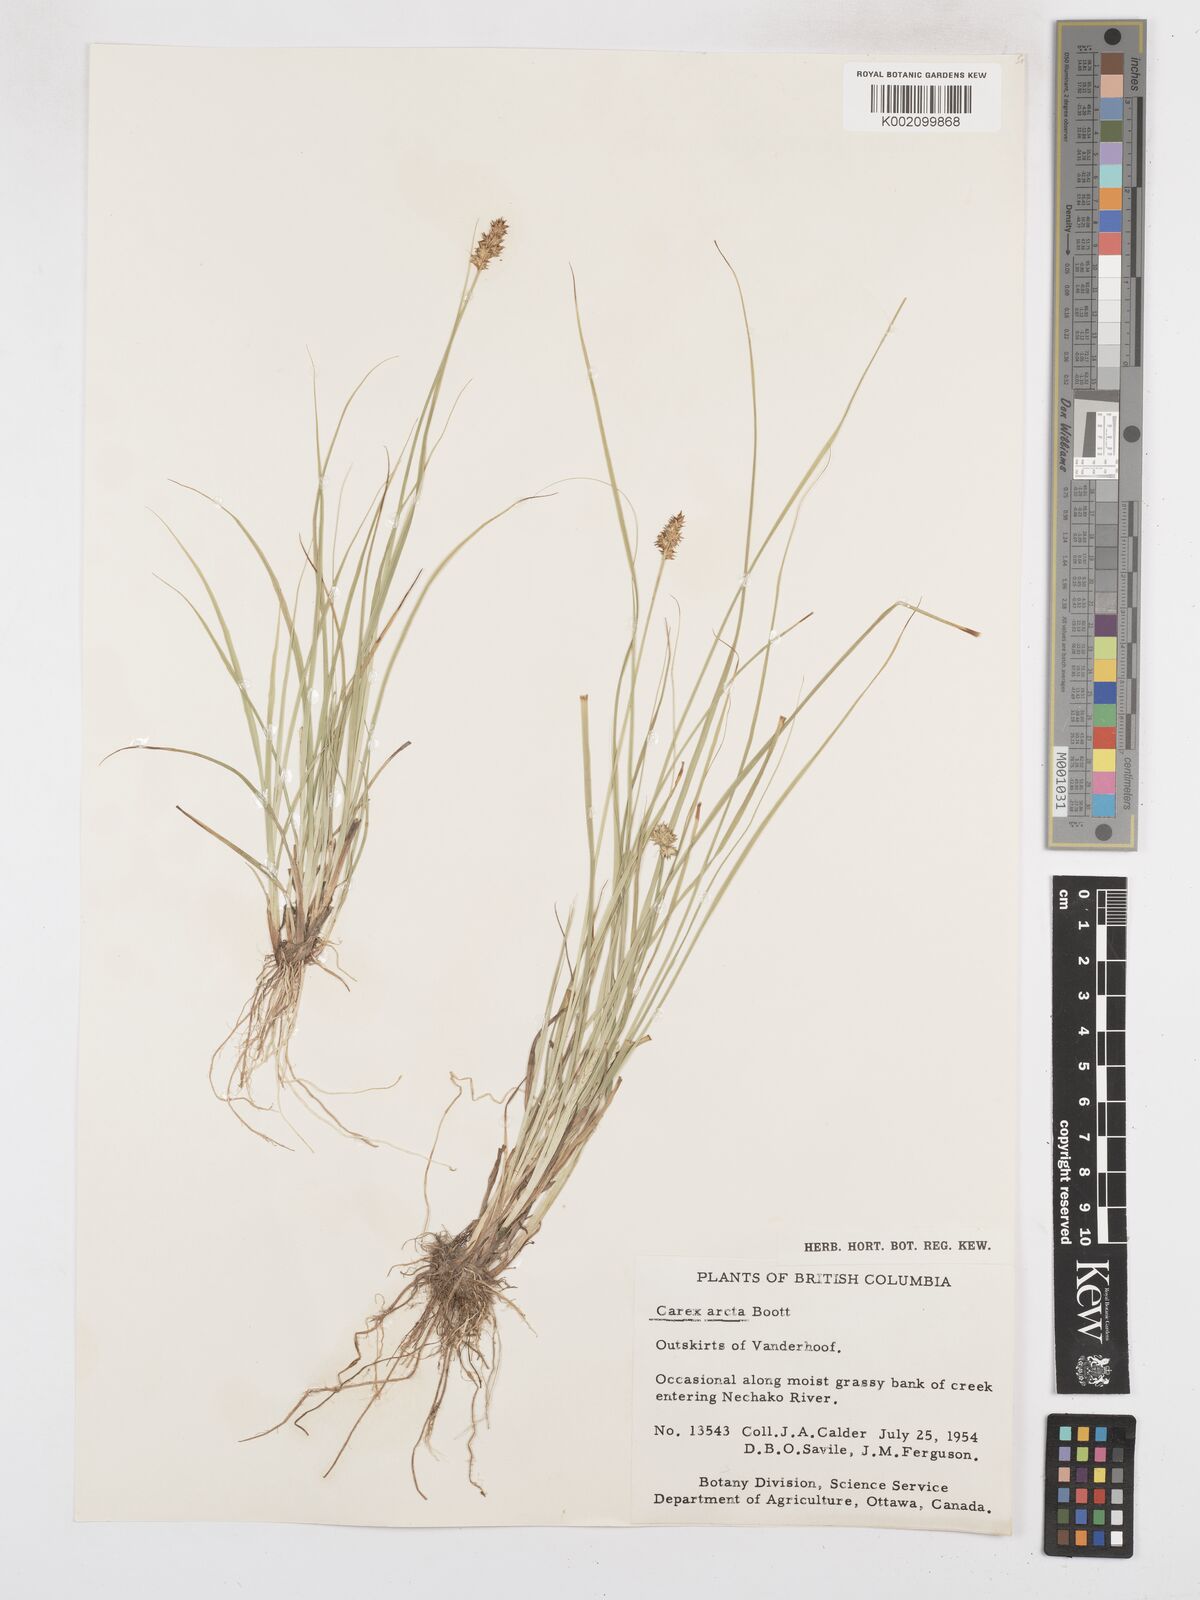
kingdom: Plantae
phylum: Tracheophyta
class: Liliopsida
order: Poales
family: Cyperaceae
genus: Carex
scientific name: Carex arcta
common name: Bear sedge
